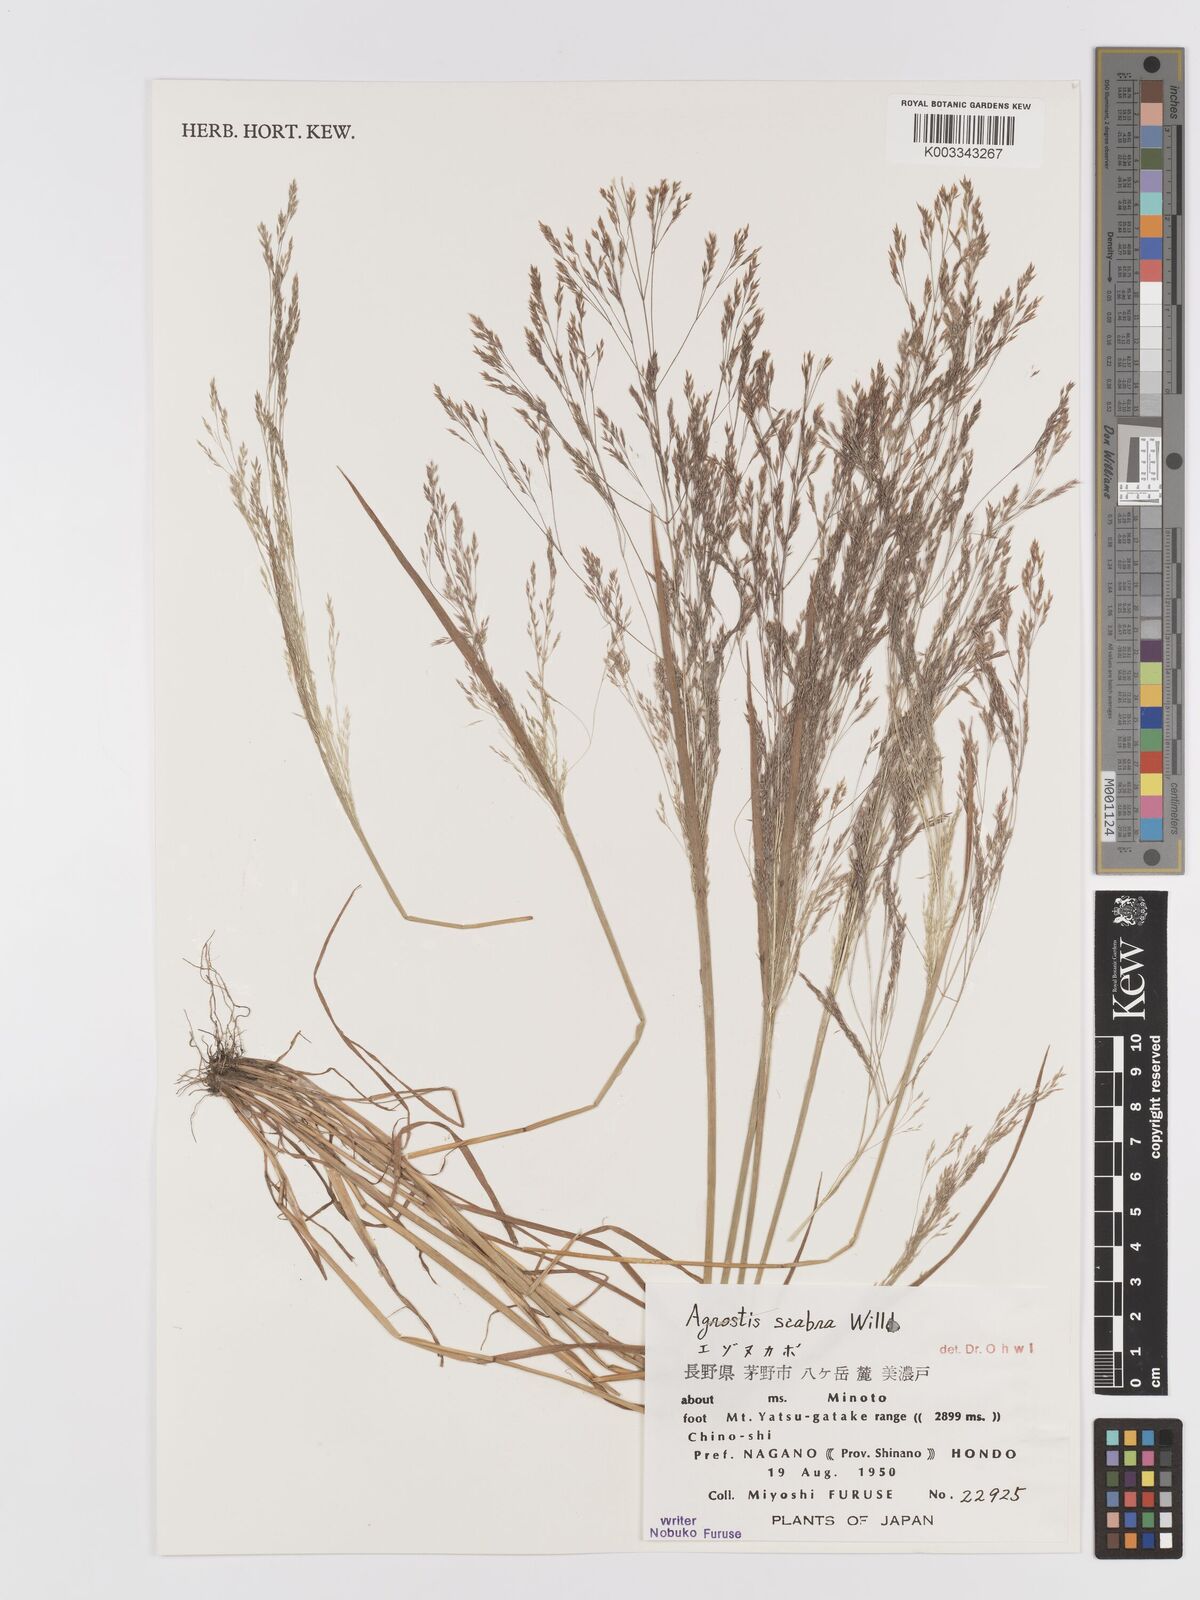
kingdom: Plantae
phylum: Tracheophyta
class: Liliopsida
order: Poales
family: Poaceae
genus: Agrostis
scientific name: Agrostis scabra
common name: Rough bent
